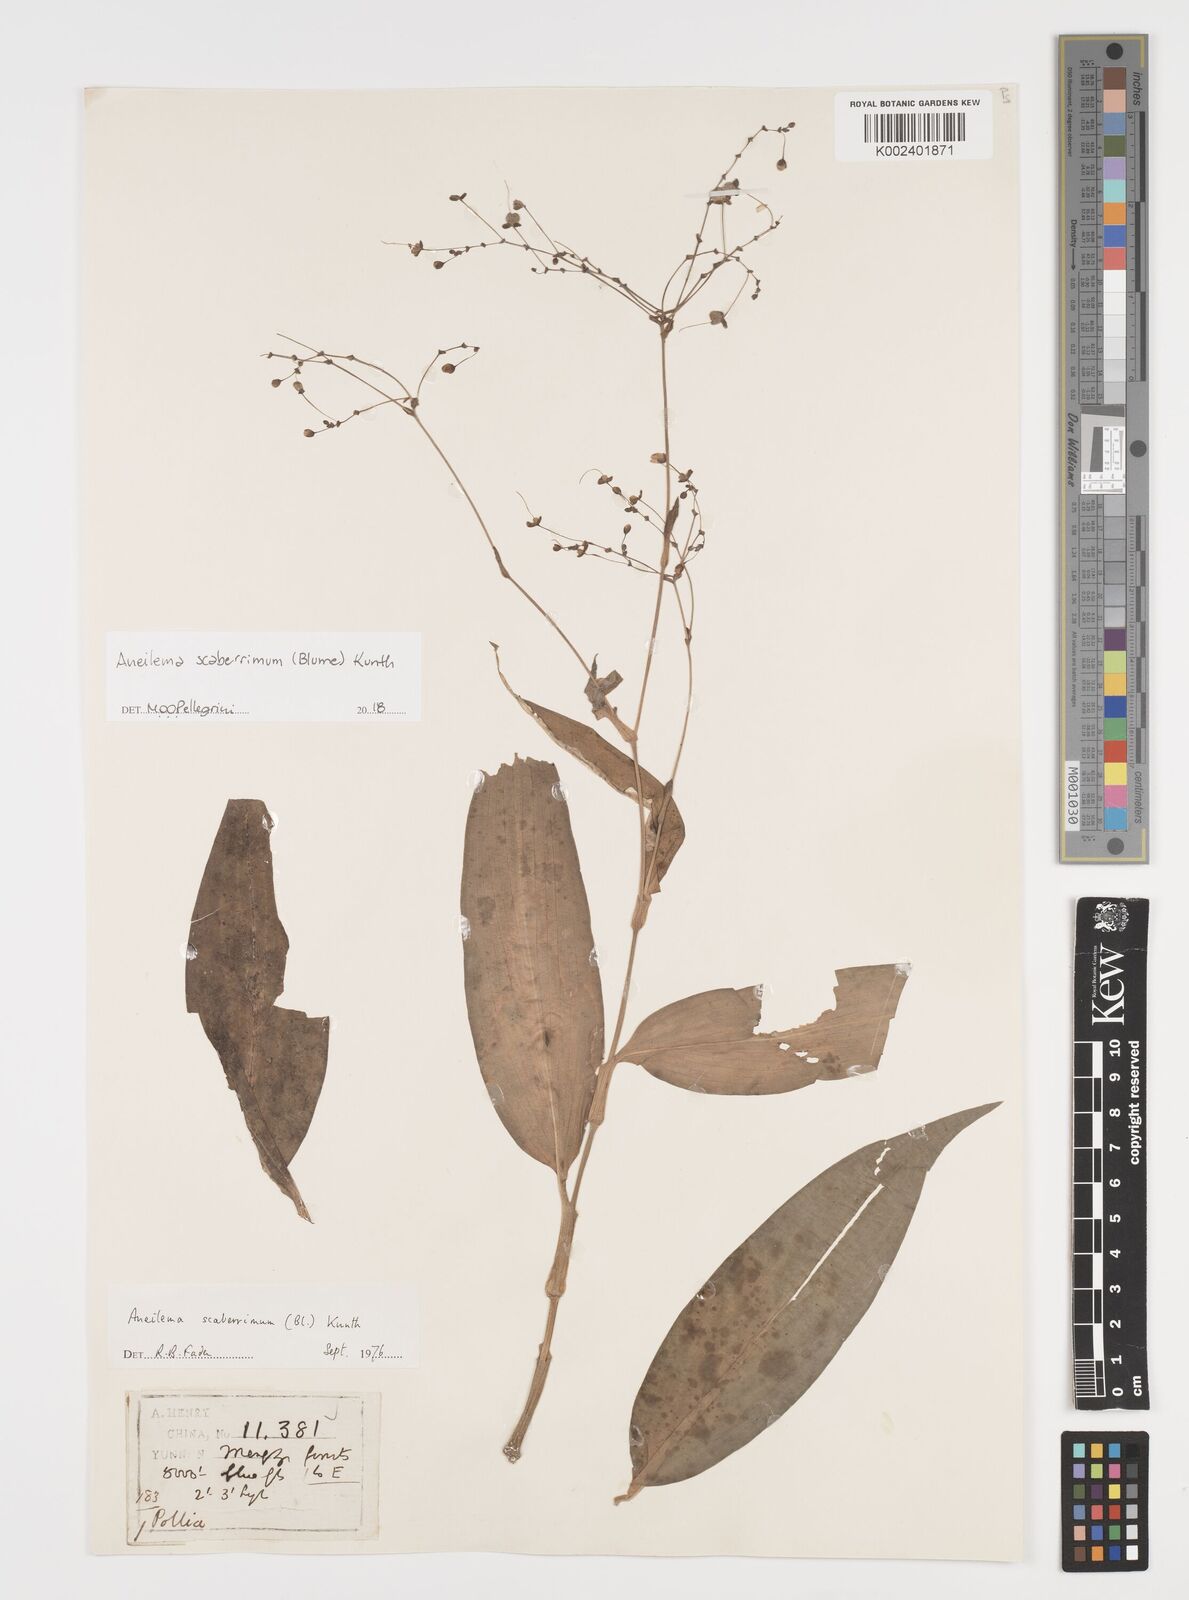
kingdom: Plantae
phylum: Tracheophyta
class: Liliopsida
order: Commelinales
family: Commelinaceae
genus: Rhopalephora
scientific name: Rhopalephora scaberrima
